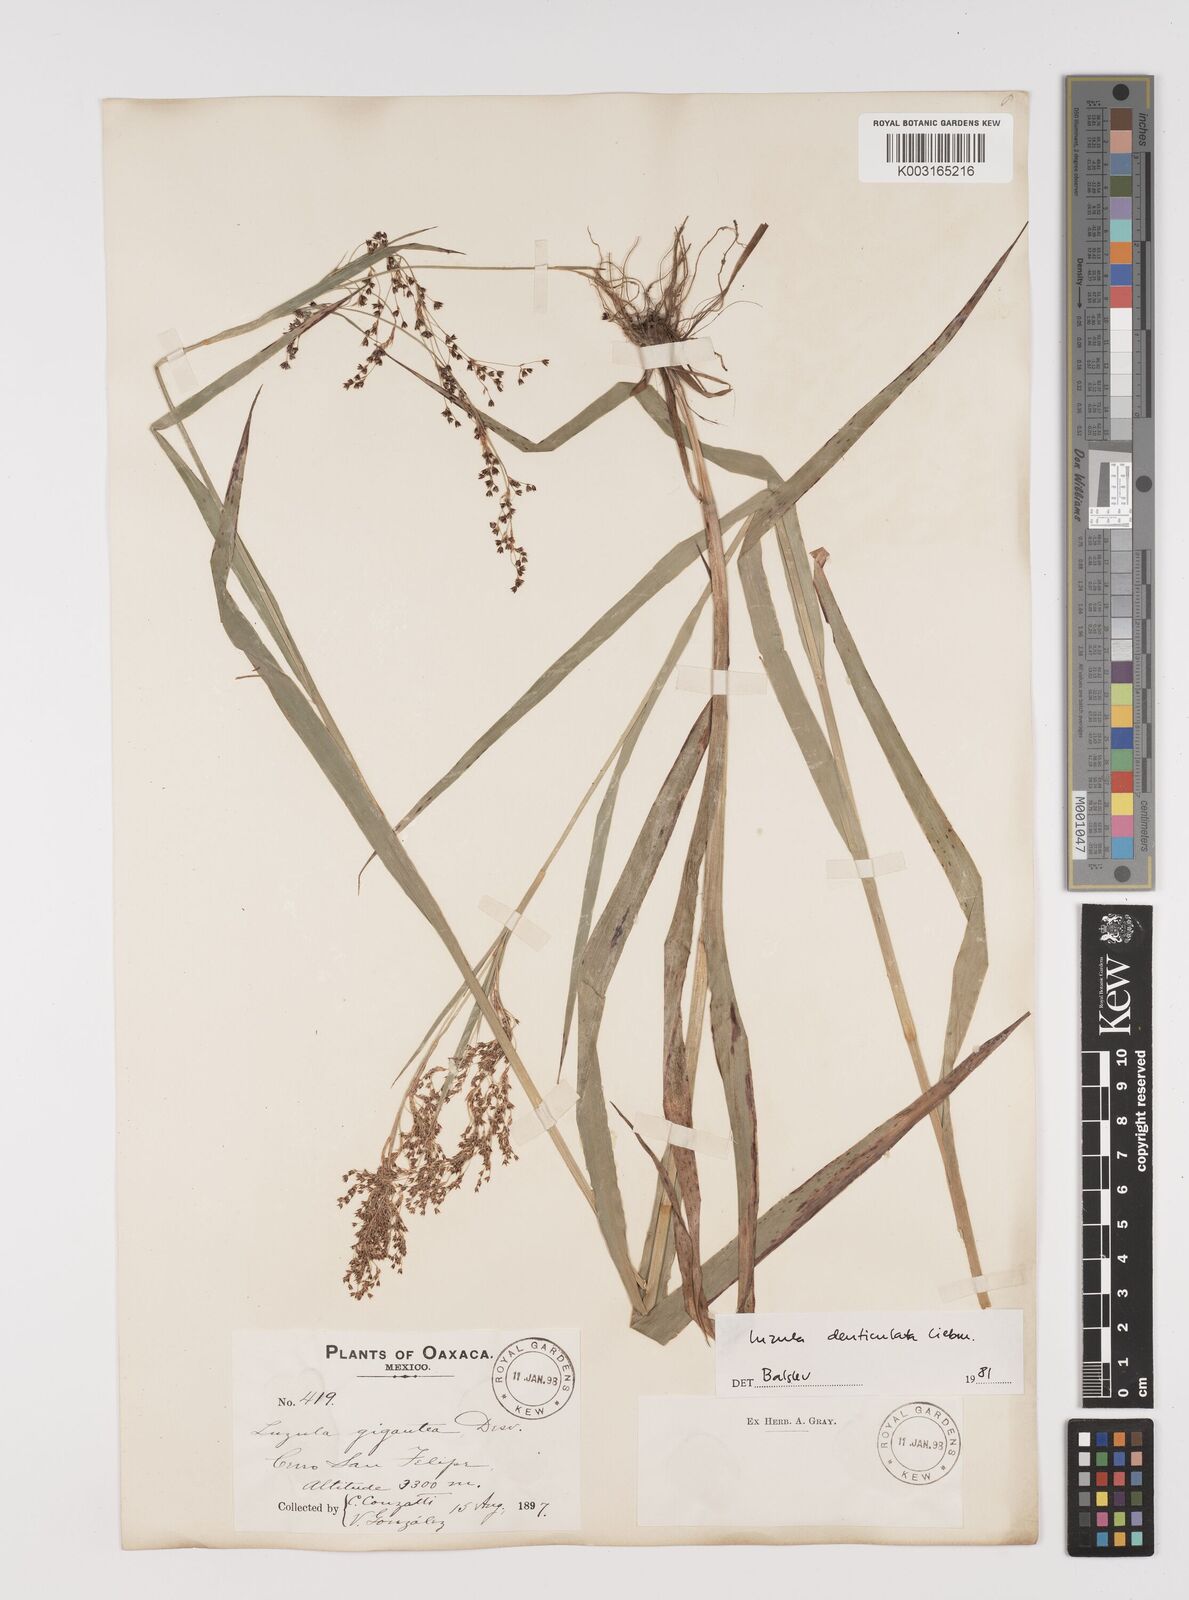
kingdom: Plantae
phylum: Tracheophyta
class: Liliopsida
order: Poales
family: Juncaceae
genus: Luzula
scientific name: Luzula gigantea
